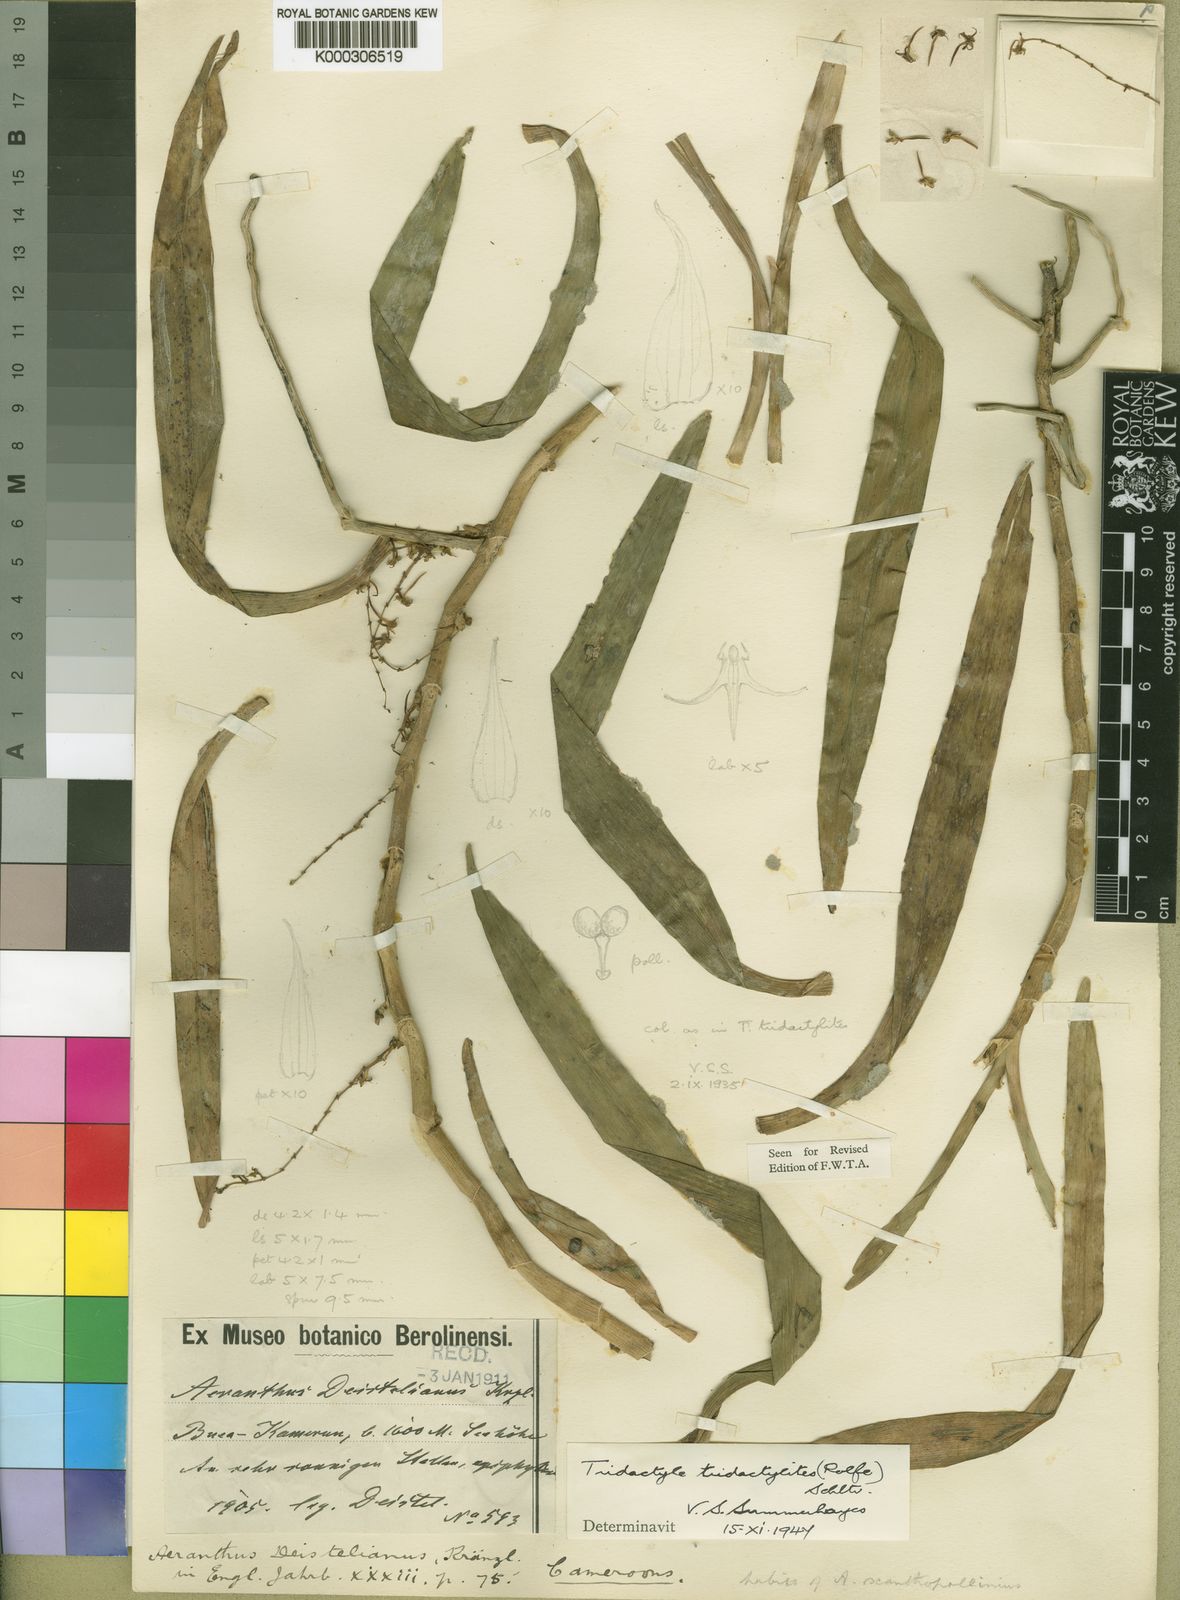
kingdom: Plantae
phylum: Tracheophyta
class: Liliopsida
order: Asparagales
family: Orchidaceae
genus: Tridactyle
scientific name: Tridactyle tridactylites
